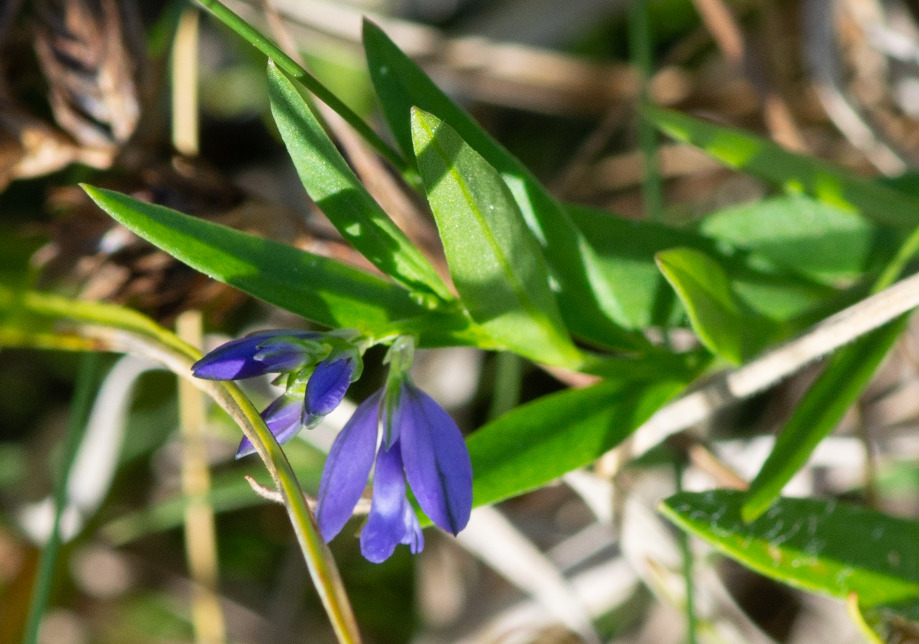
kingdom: Plantae
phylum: Tracheophyta
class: Magnoliopsida
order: Fabales
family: Polygalaceae
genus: Polygala
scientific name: Polygala vulgaris
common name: Almindelig mælkeurt
